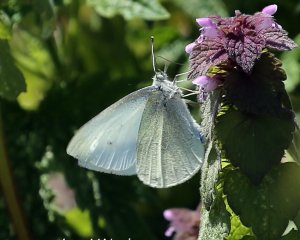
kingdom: Animalia
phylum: Arthropoda
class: Insecta
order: Lepidoptera
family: Pieridae
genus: Pieris
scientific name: Pieris rapae
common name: Cabbage White
